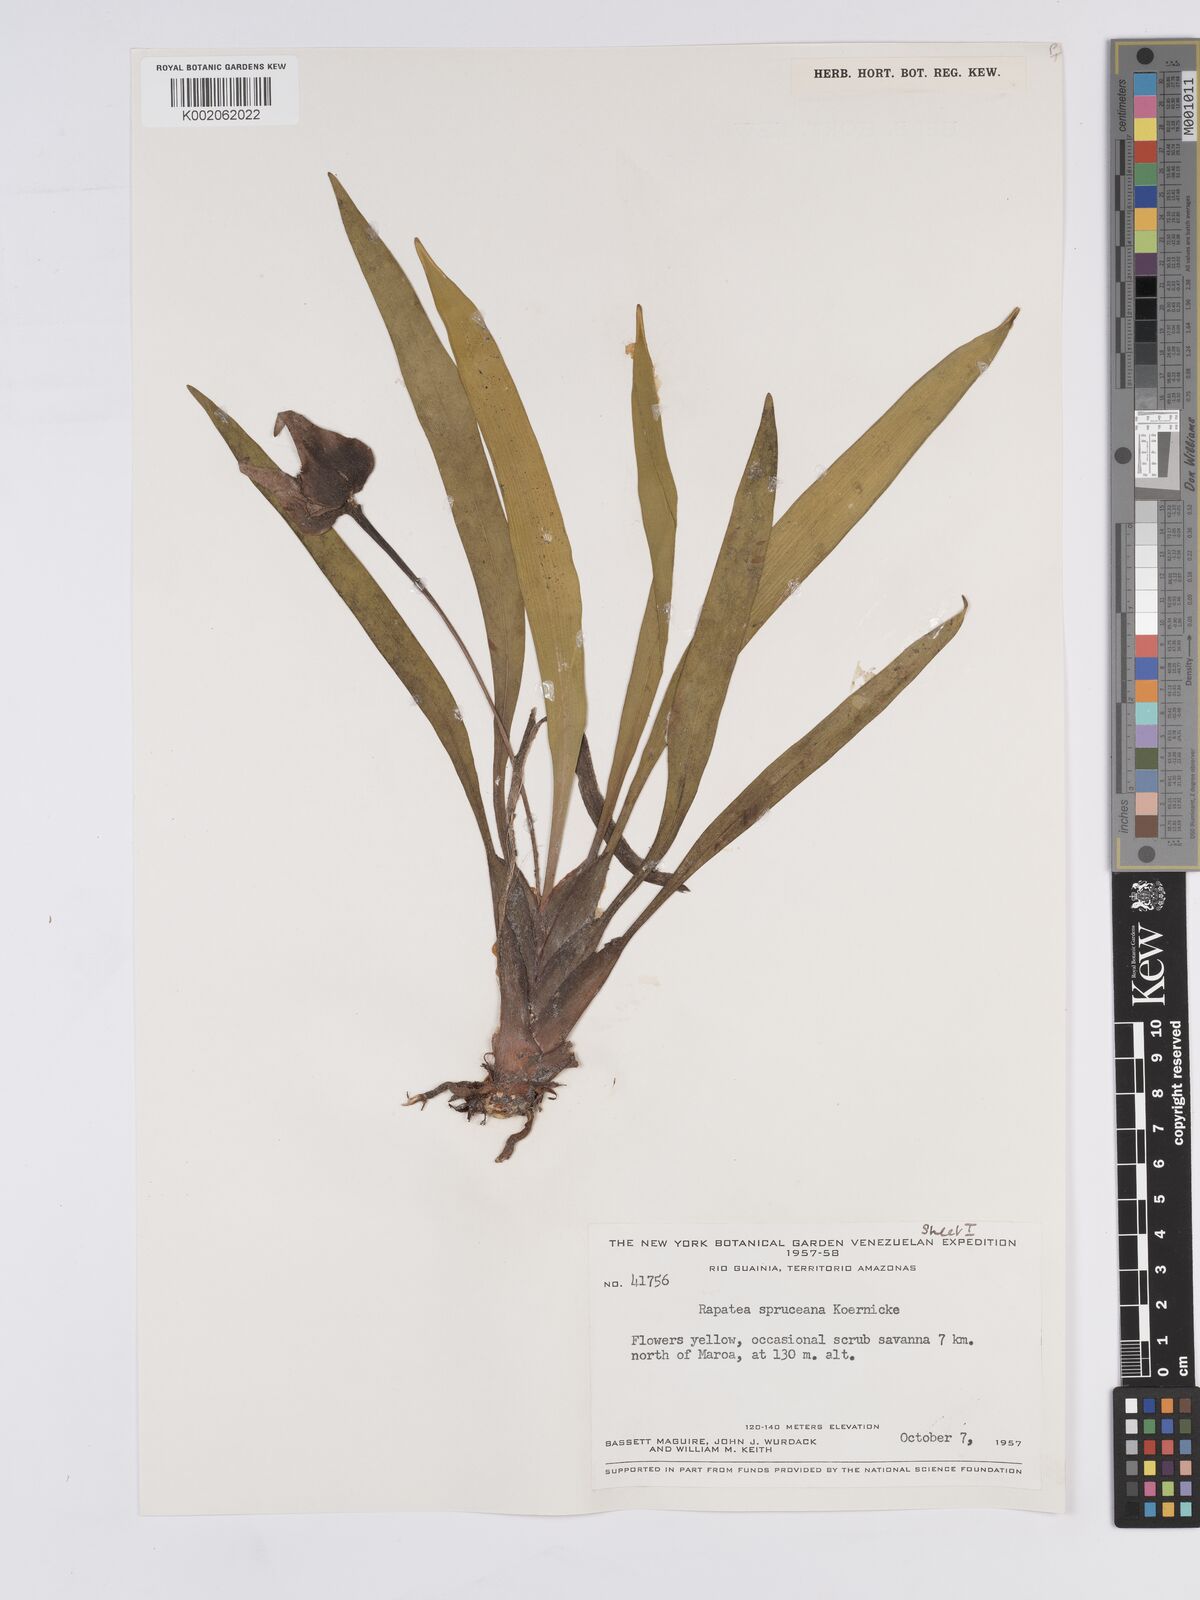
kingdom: Plantae
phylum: Tracheophyta
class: Liliopsida
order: Poales
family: Rapateaceae
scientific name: Rapateaceae
